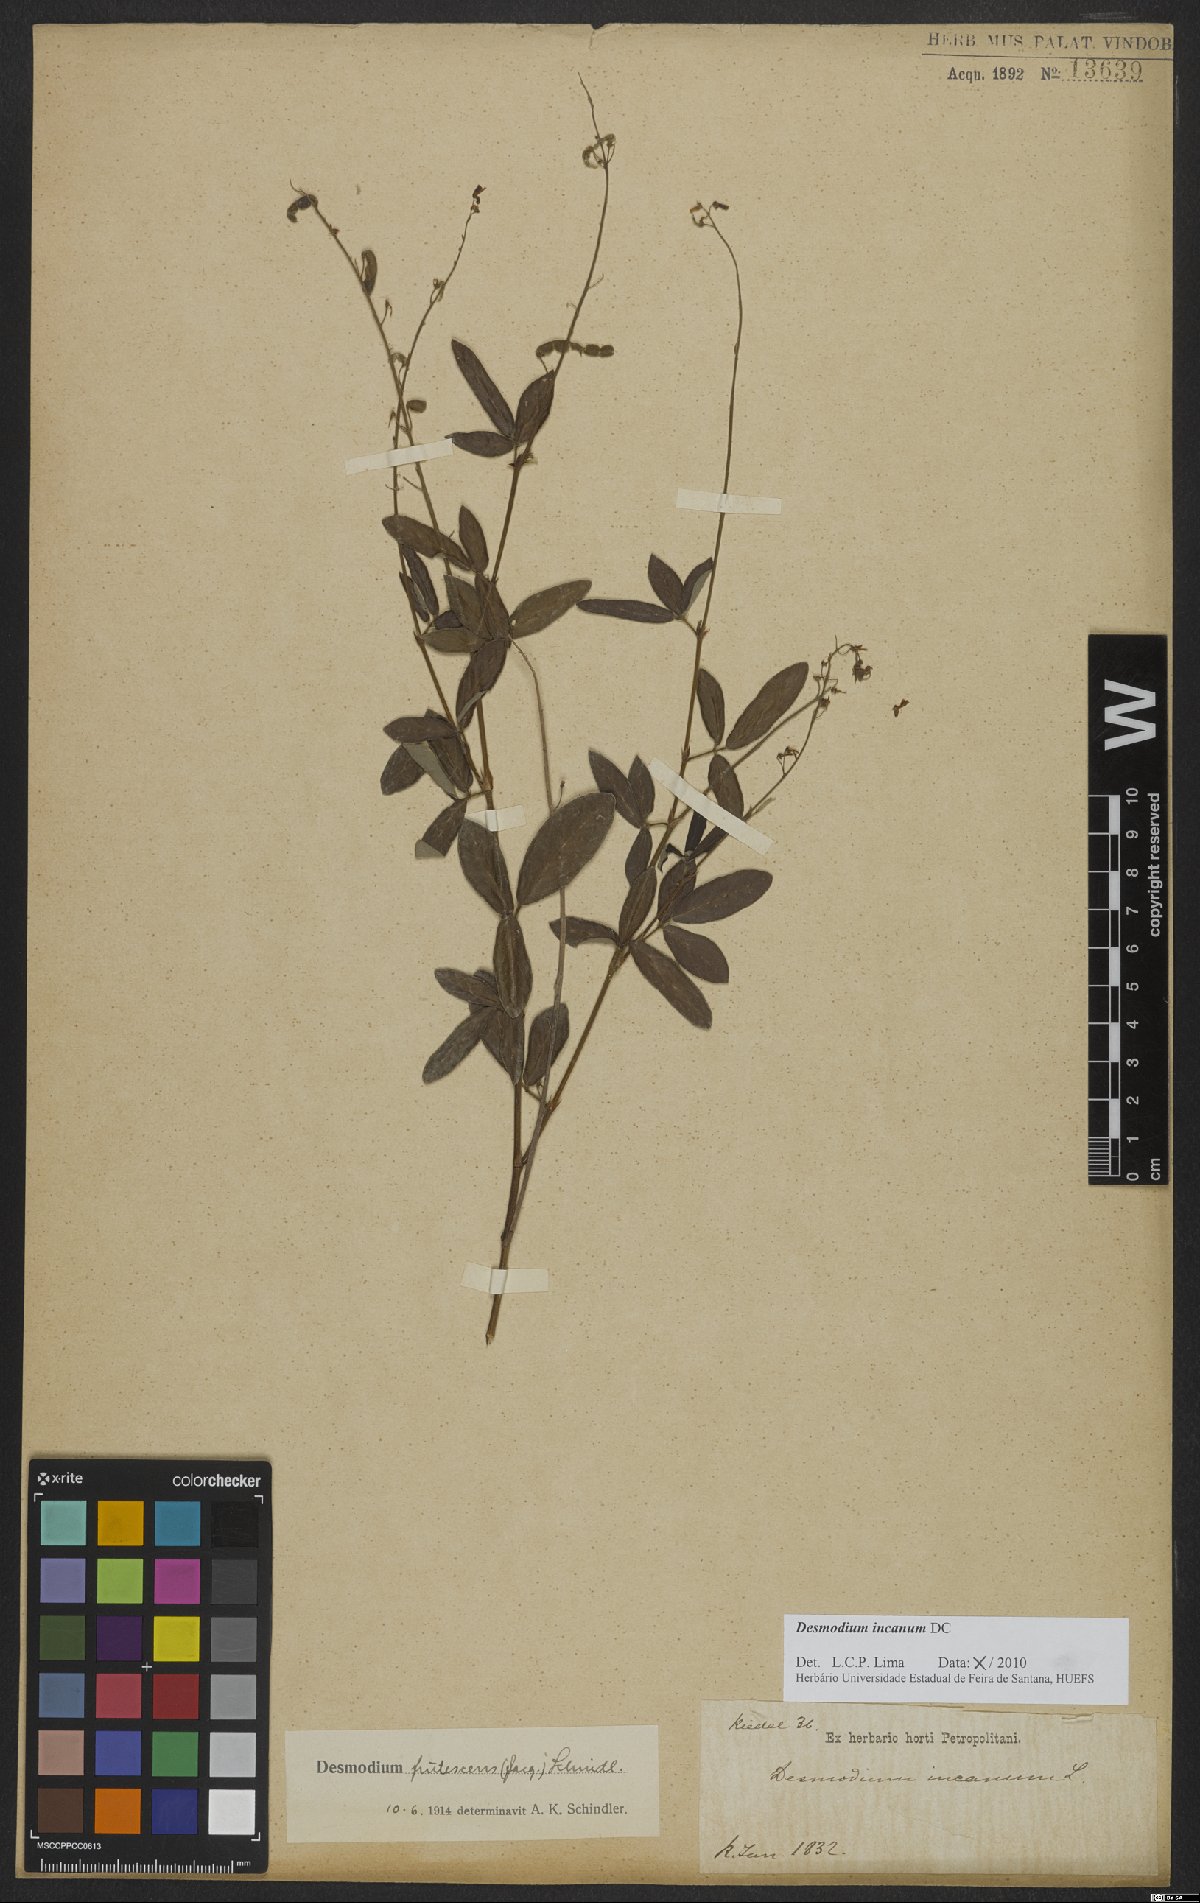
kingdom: Plantae
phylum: Tracheophyta
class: Magnoliopsida
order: Fabales
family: Fabaceae
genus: Desmodium
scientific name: Desmodium incanum
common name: Tickclover
